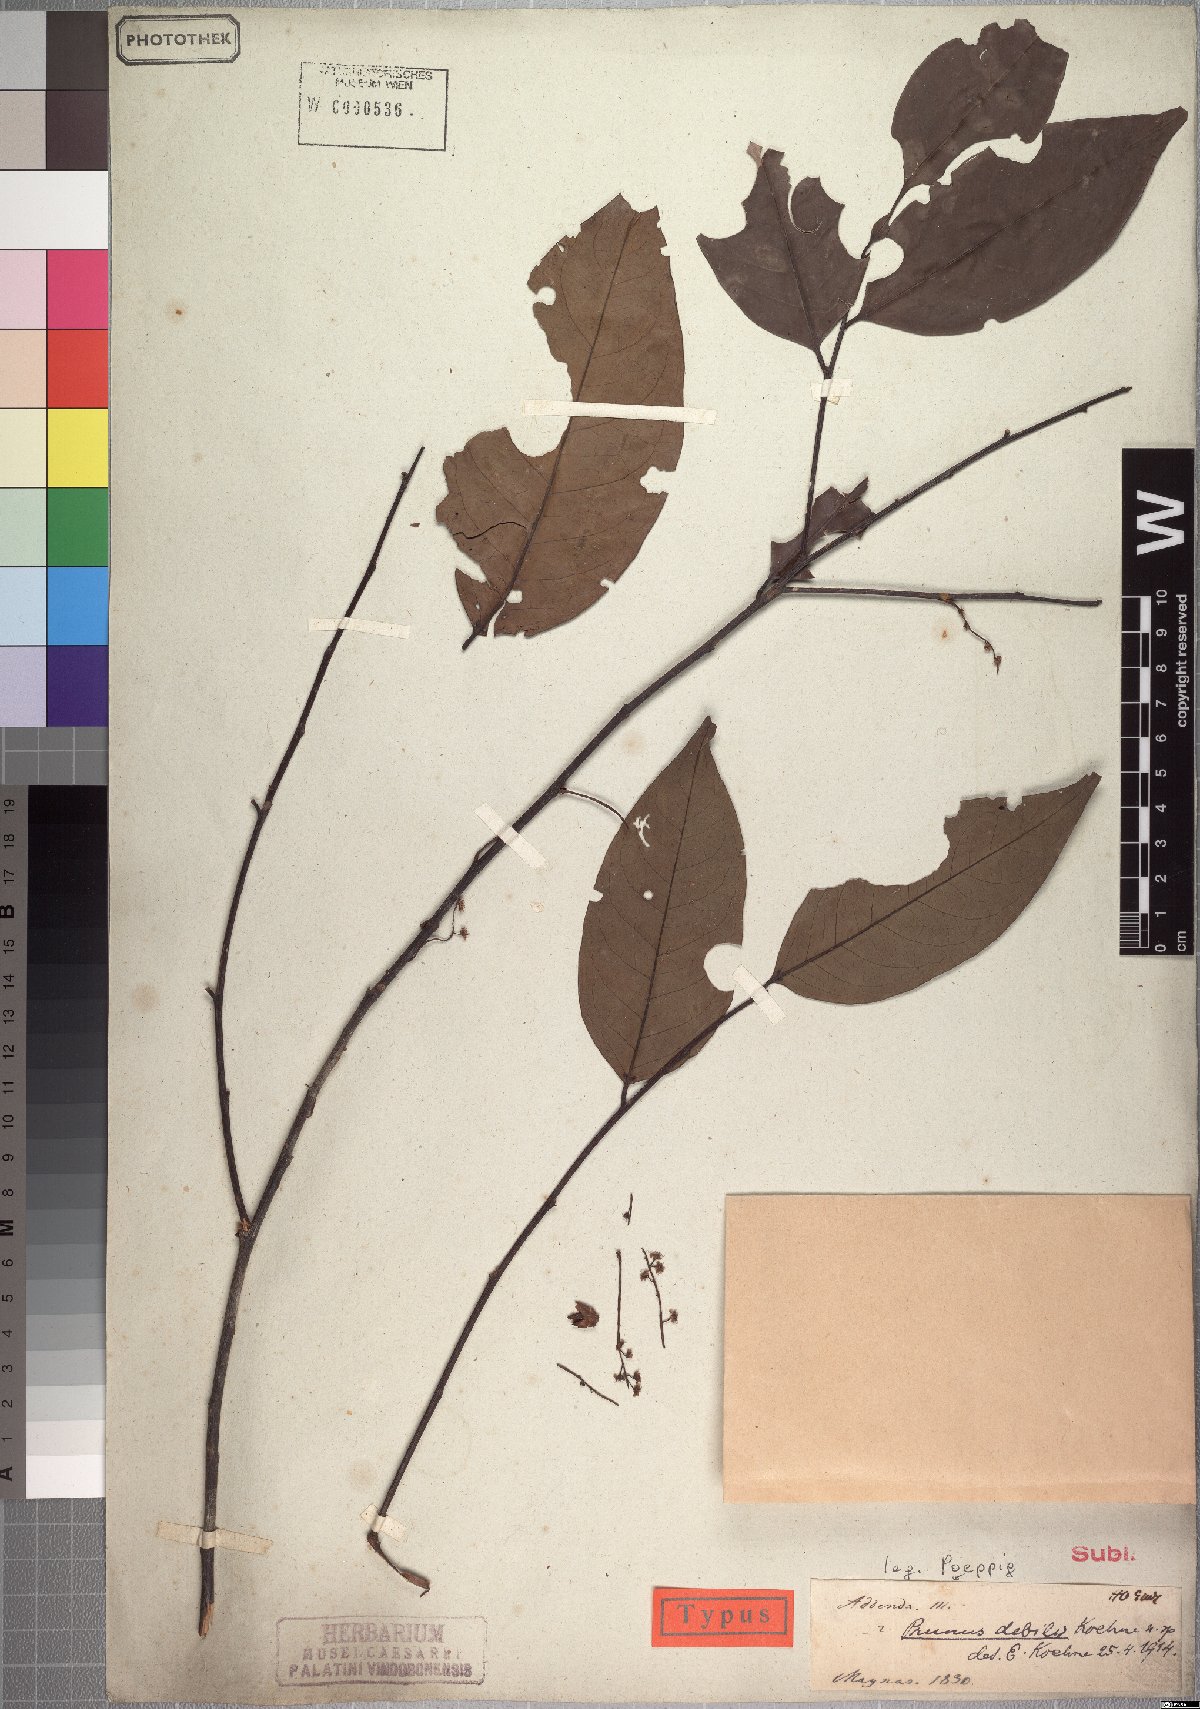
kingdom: Plantae
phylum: Tracheophyta
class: Magnoliopsida
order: Rosales
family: Rosaceae
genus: Prunus
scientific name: Prunus debilis
